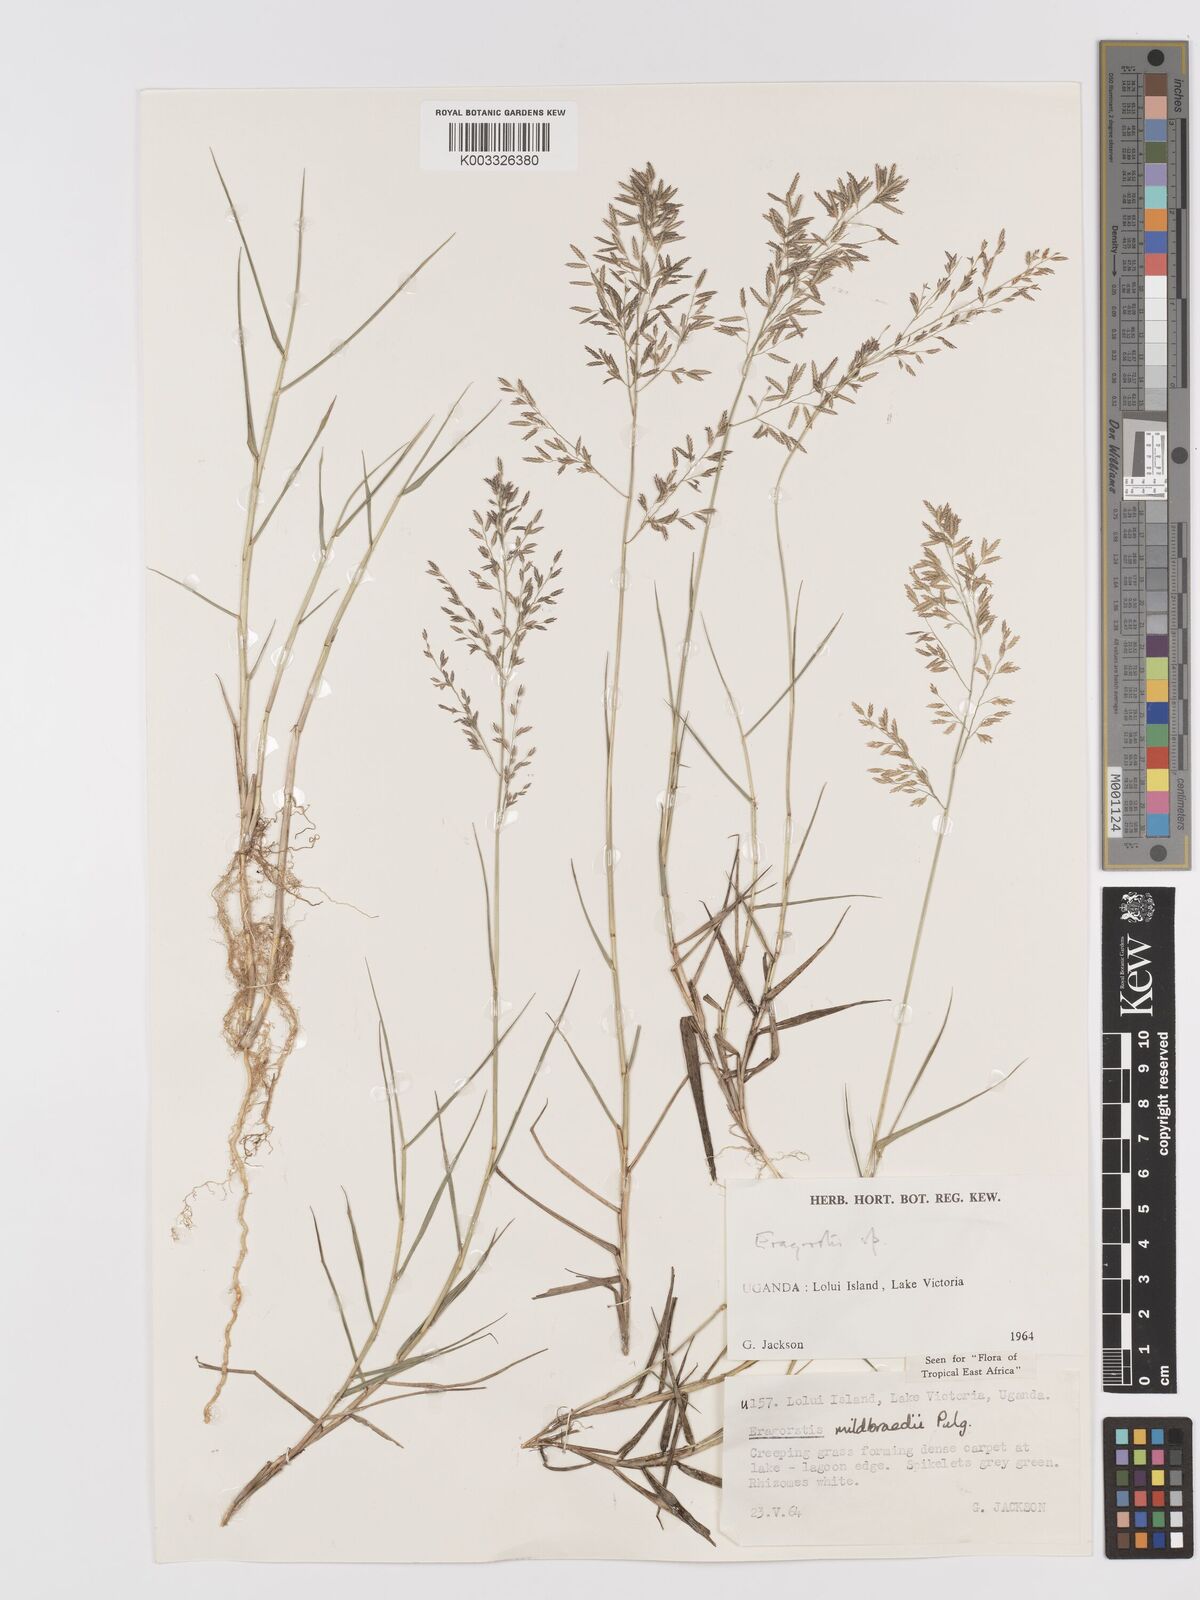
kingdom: Plantae
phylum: Tracheophyta
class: Liliopsida
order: Poales
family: Poaceae
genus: Eragrostis
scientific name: Eragrostis mildbraedii
